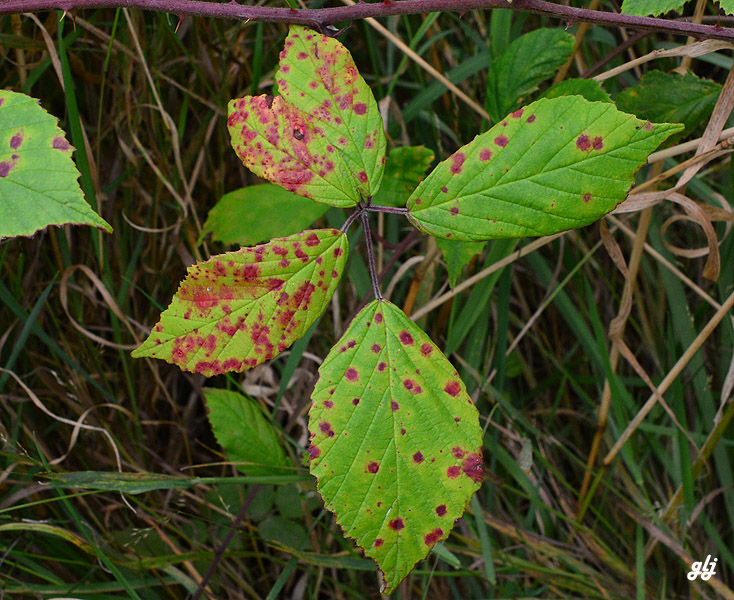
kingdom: Fungi
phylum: Basidiomycota
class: Pucciniomycetes
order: Pucciniales
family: Phragmidiaceae
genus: Phragmidium
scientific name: Phragmidium
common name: flercellerust
